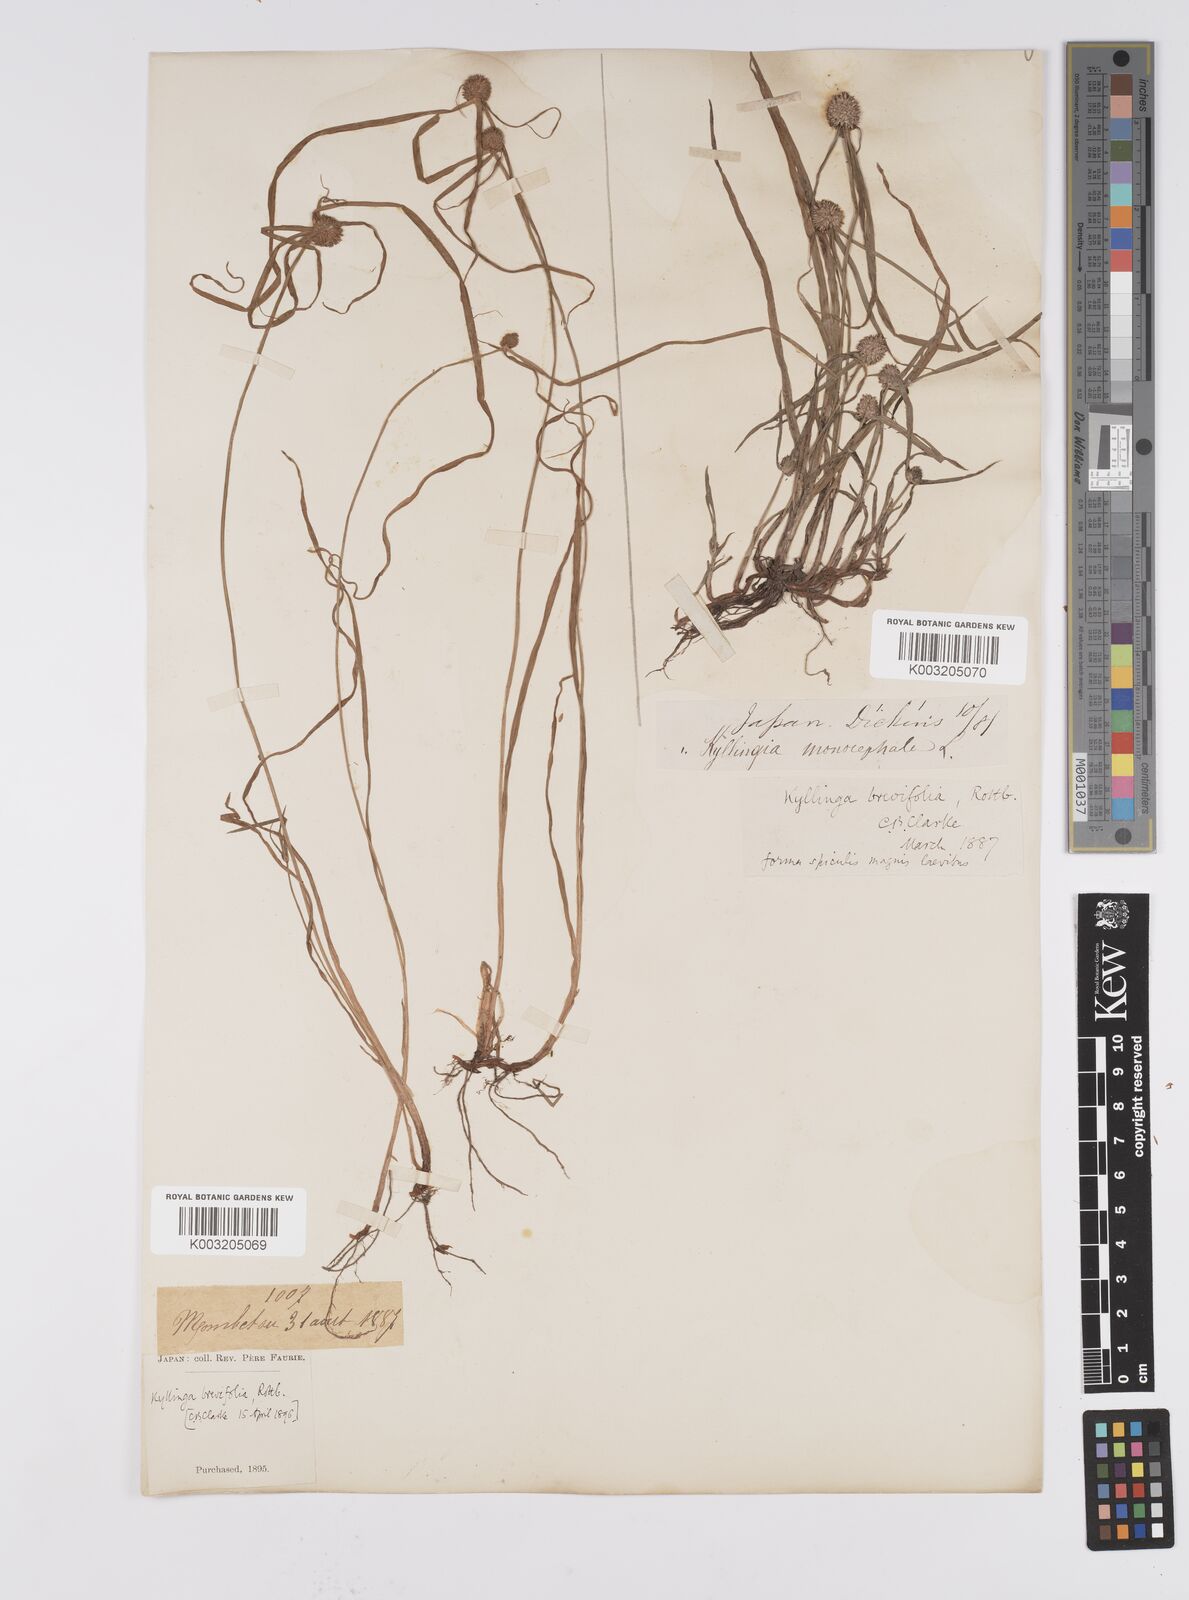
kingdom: Plantae
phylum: Tracheophyta
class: Liliopsida
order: Poales
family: Cyperaceae
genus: Cyperus
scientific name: Cyperus brevifolius
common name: Globe kyllinga
